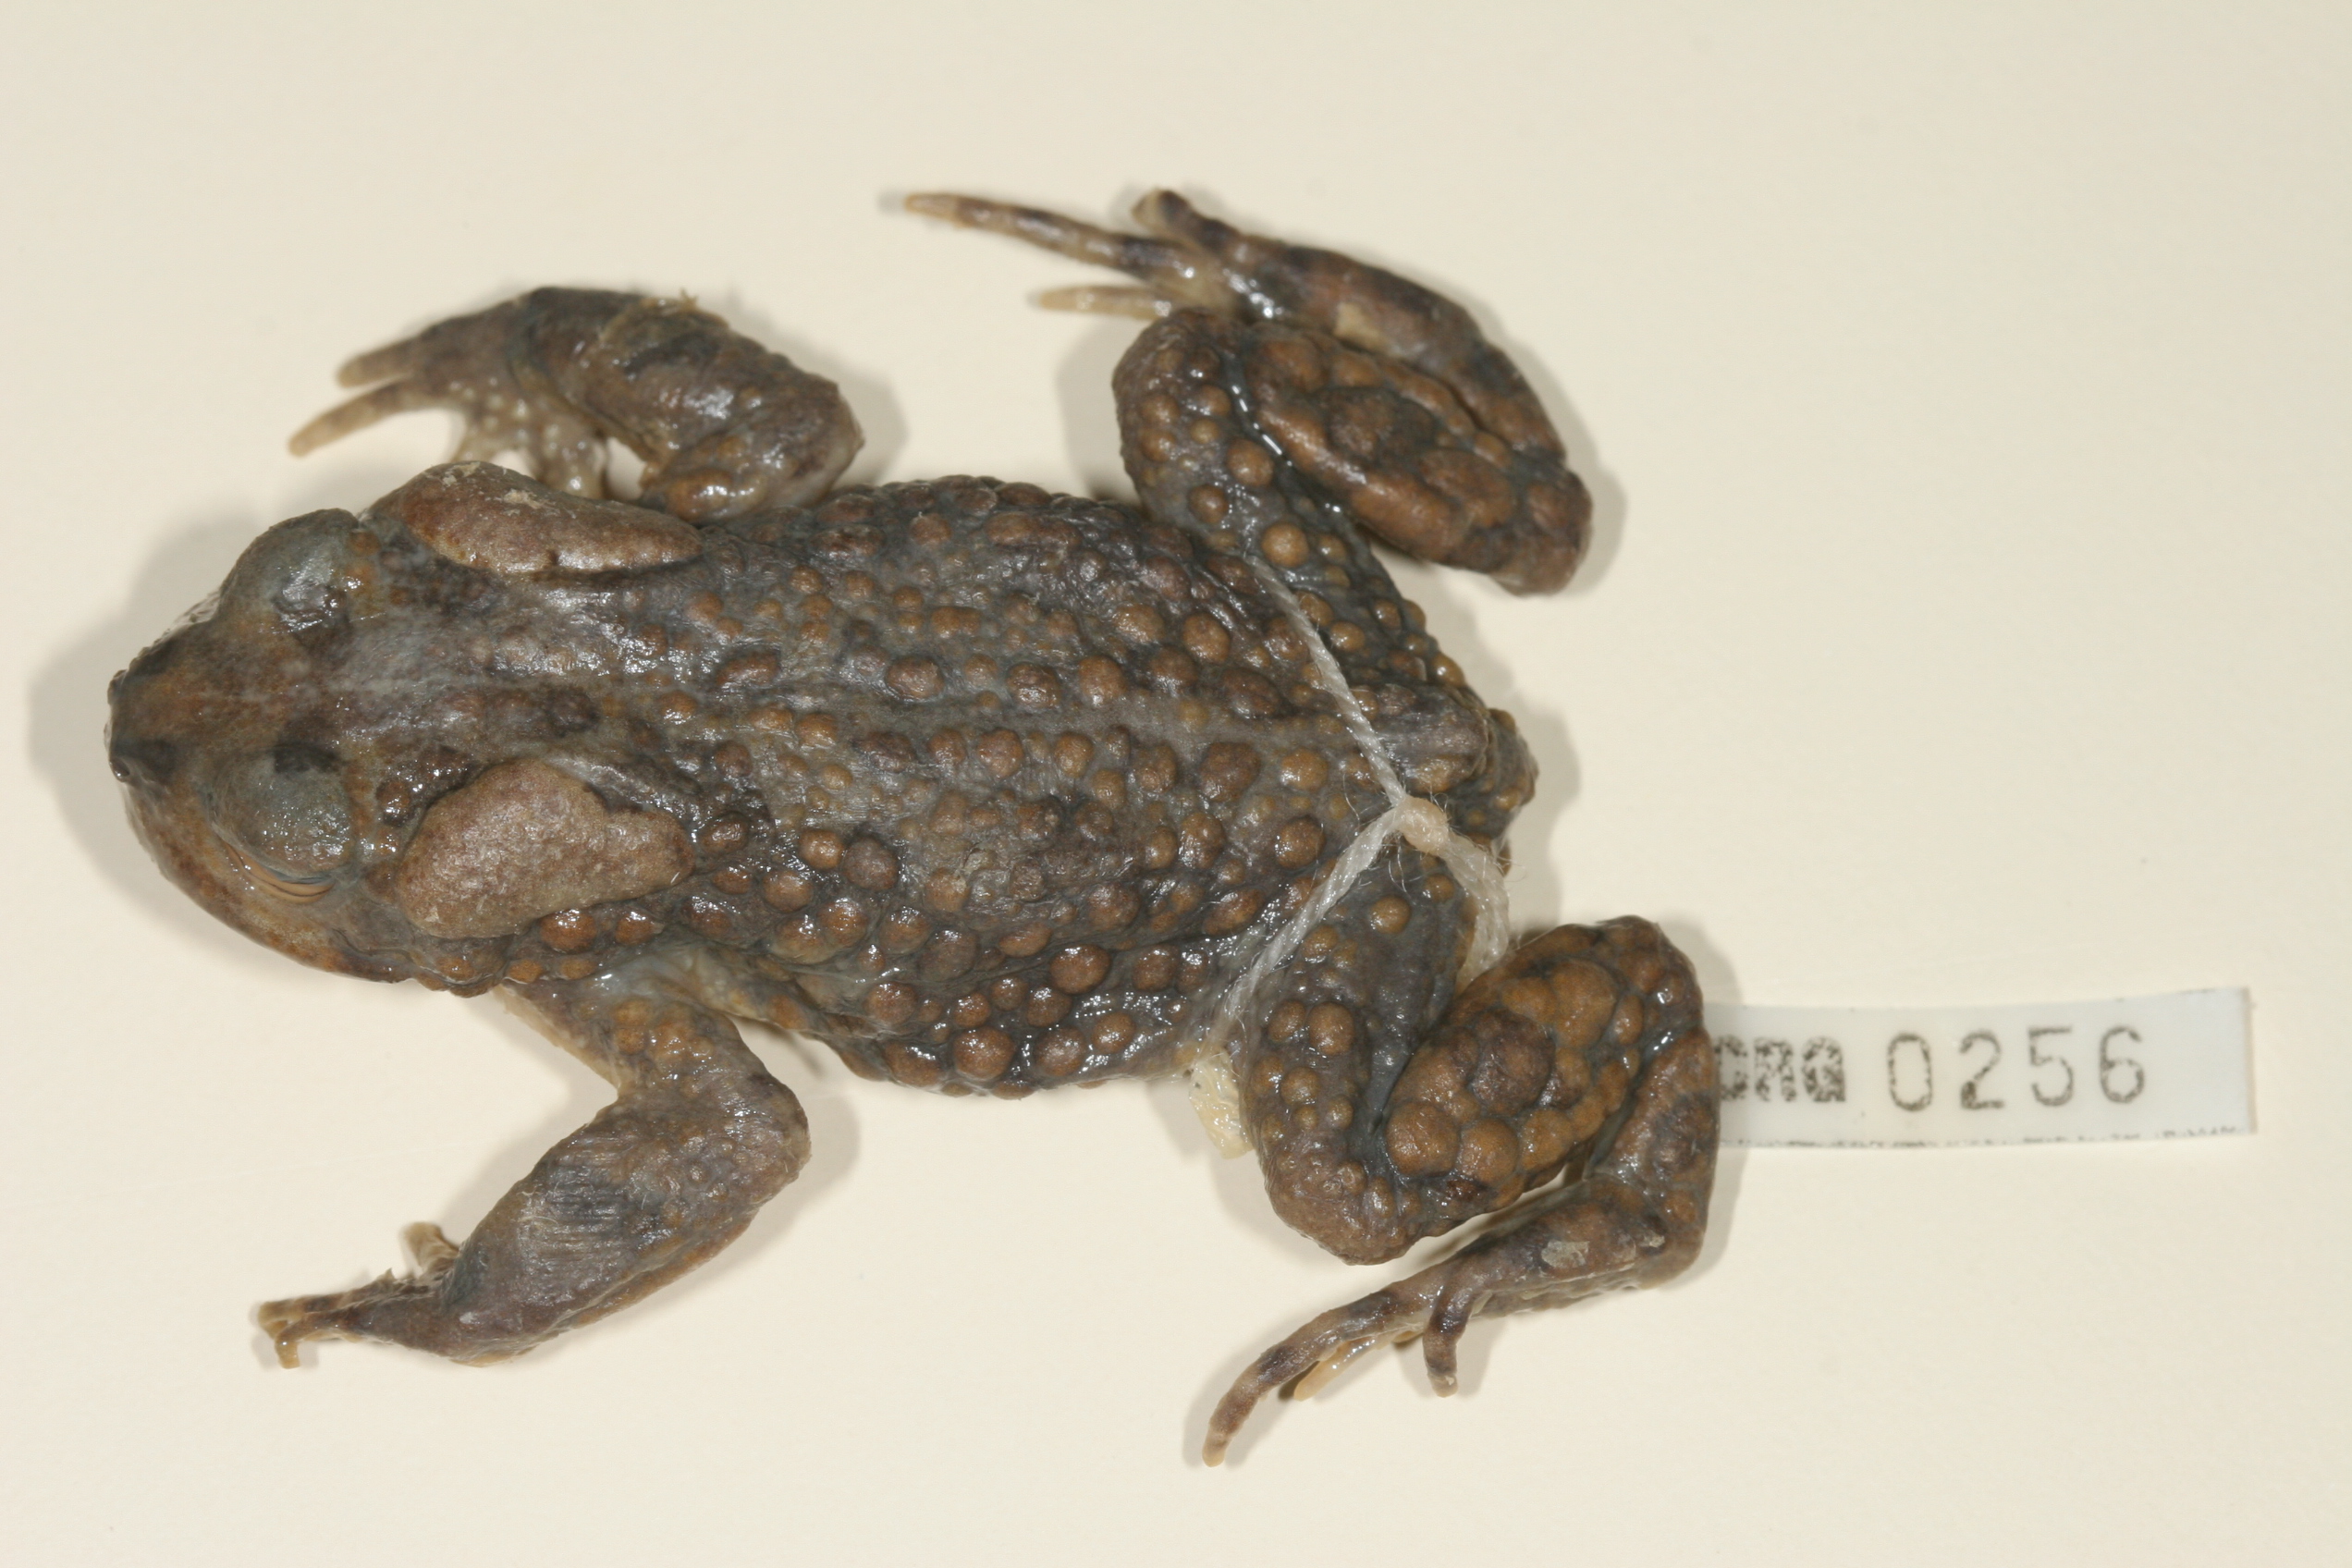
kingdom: Animalia
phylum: Chordata
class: Amphibia
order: Anura
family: Bufonidae
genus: Vandijkophrynus
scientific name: Vandijkophrynus robinsoni
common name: Paradise toad
